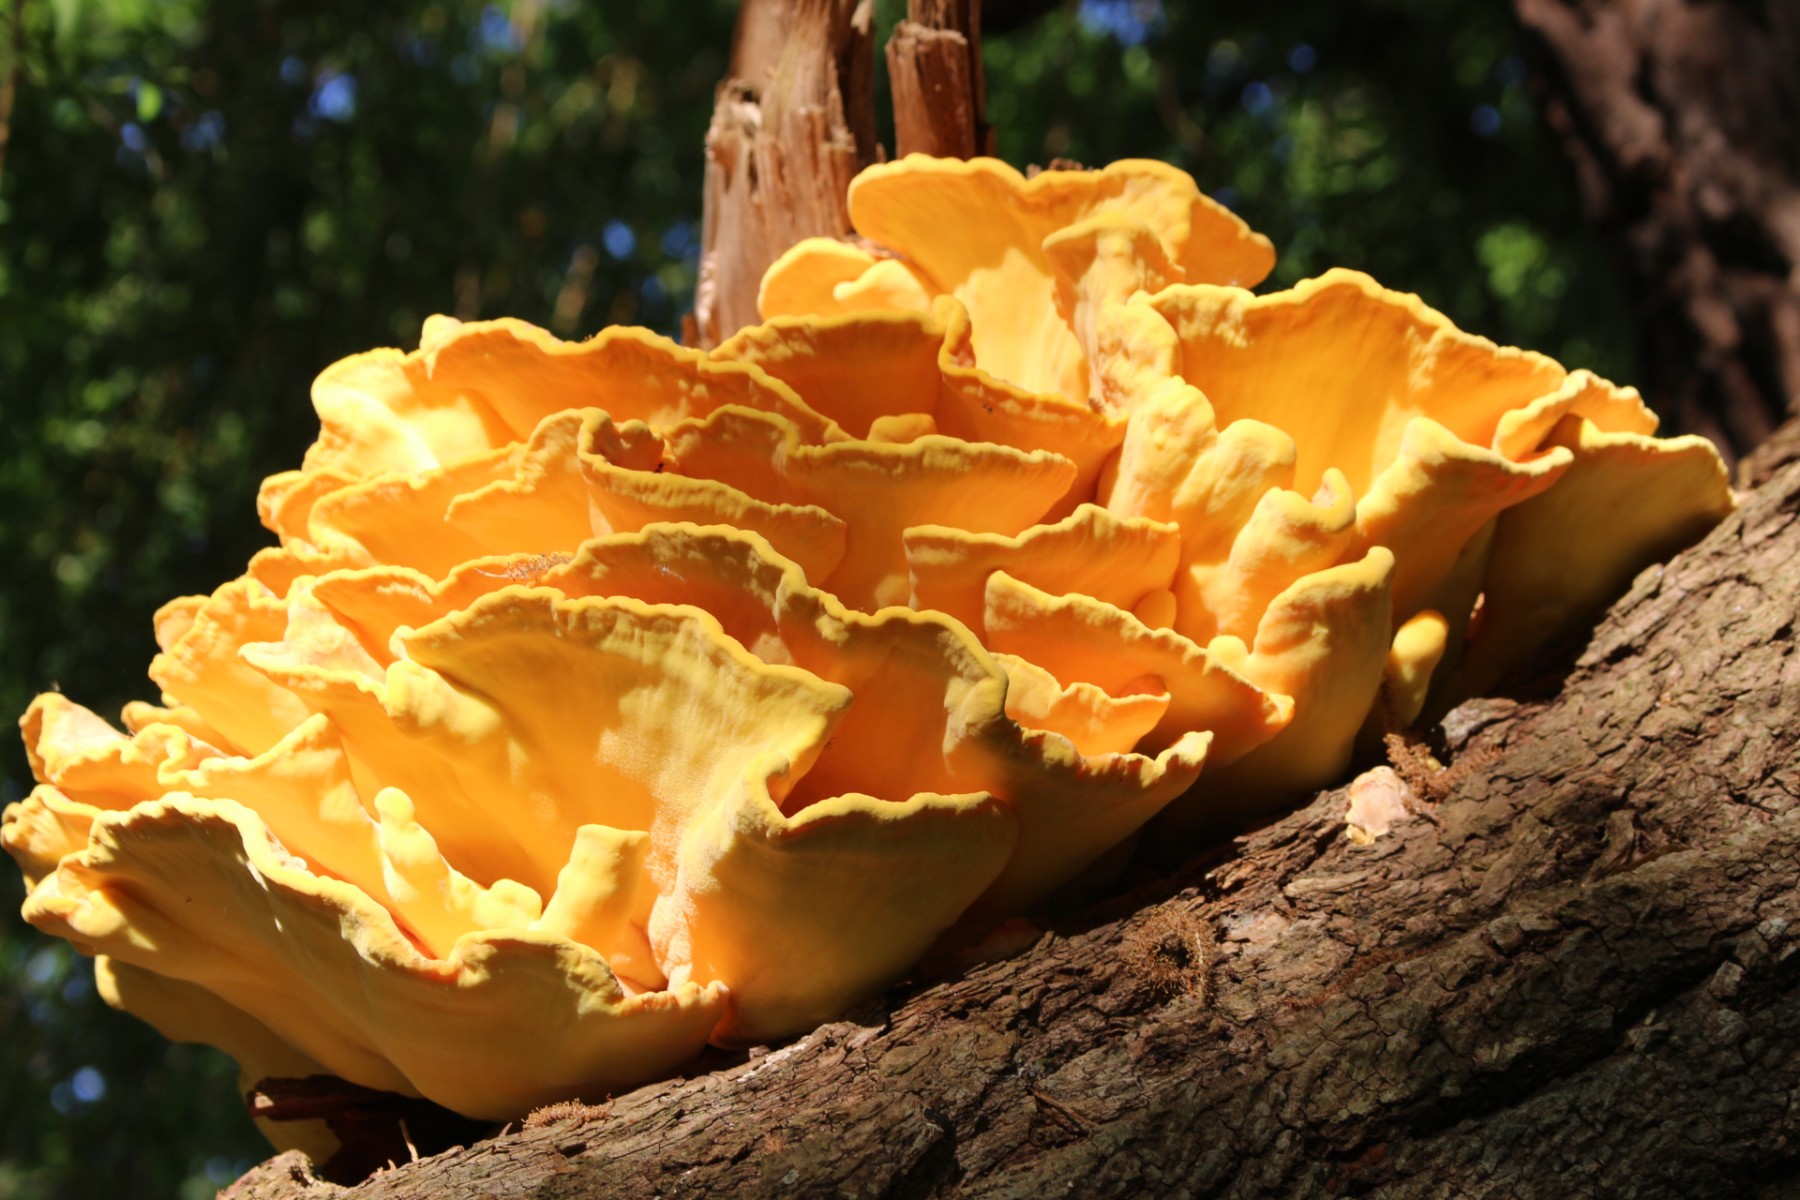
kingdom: Fungi
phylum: Basidiomycota
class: Agaricomycetes
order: Polyporales
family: Laetiporaceae
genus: Laetiporus
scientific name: Laetiporus sulphureus
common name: svovlporesvamp
